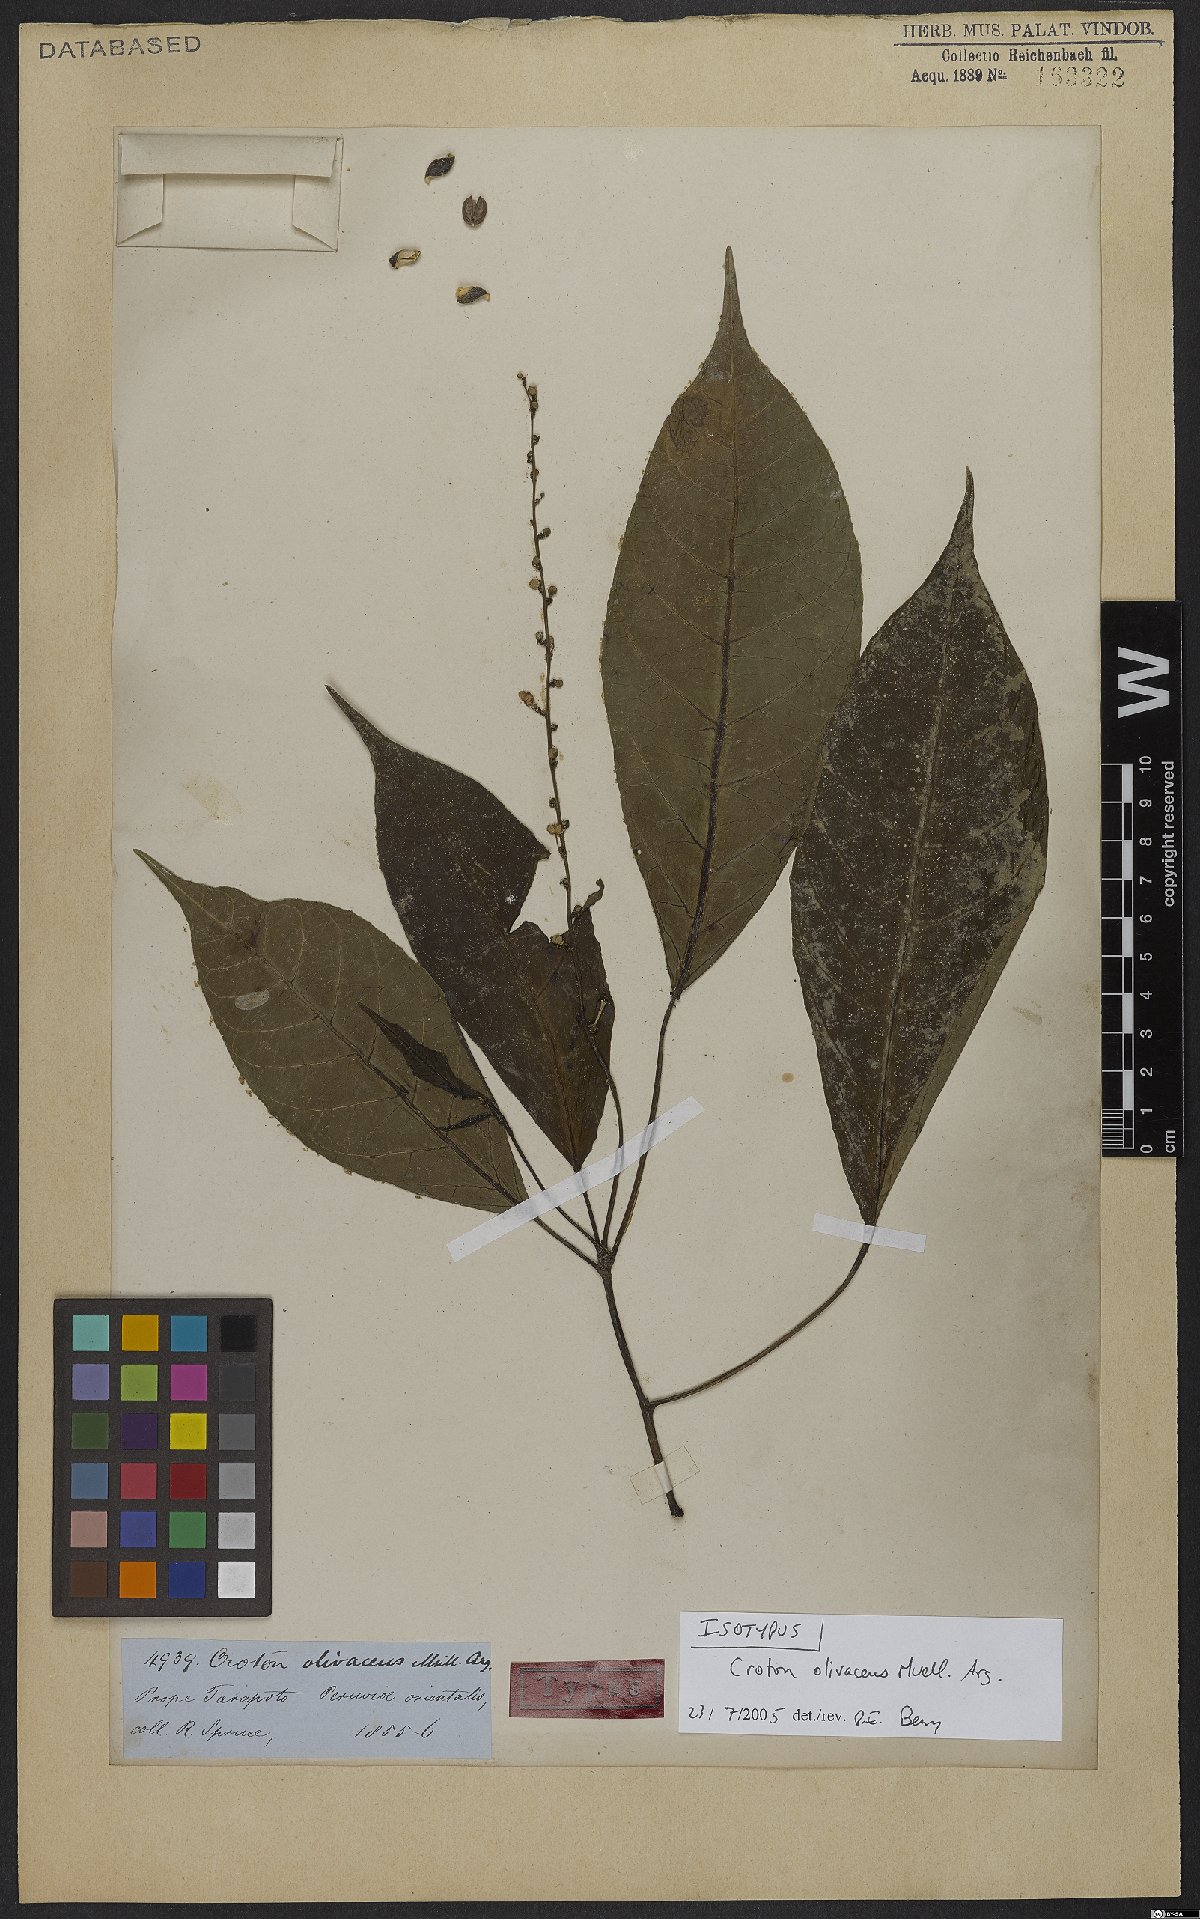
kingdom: Plantae
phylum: Tracheophyta
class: Magnoliopsida
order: Malpighiales
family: Euphorbiaceae
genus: Croton
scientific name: Croton olivaceus
